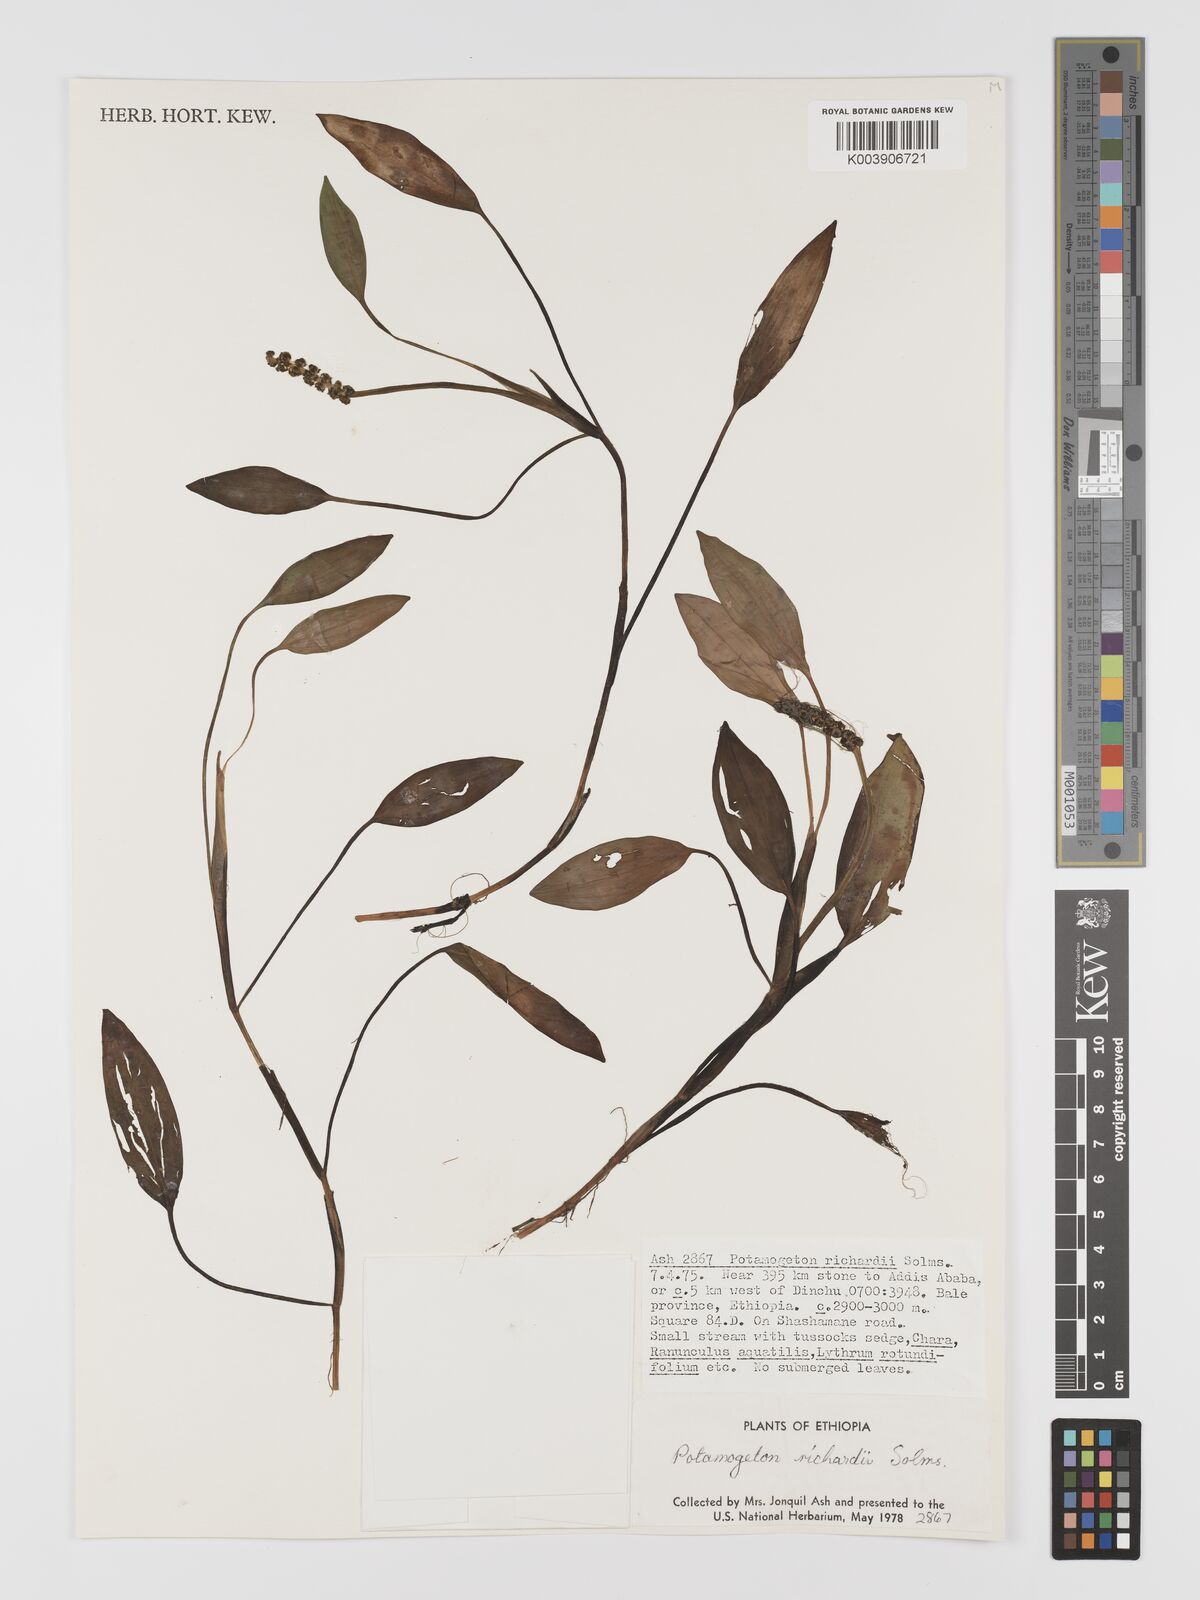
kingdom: Plantae
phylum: Tracheophyta
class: Liliopsida
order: Alismatales
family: Potamogetonaceae
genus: Potamogeton
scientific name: Potamogeton nodosus
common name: Loddon pondweed
